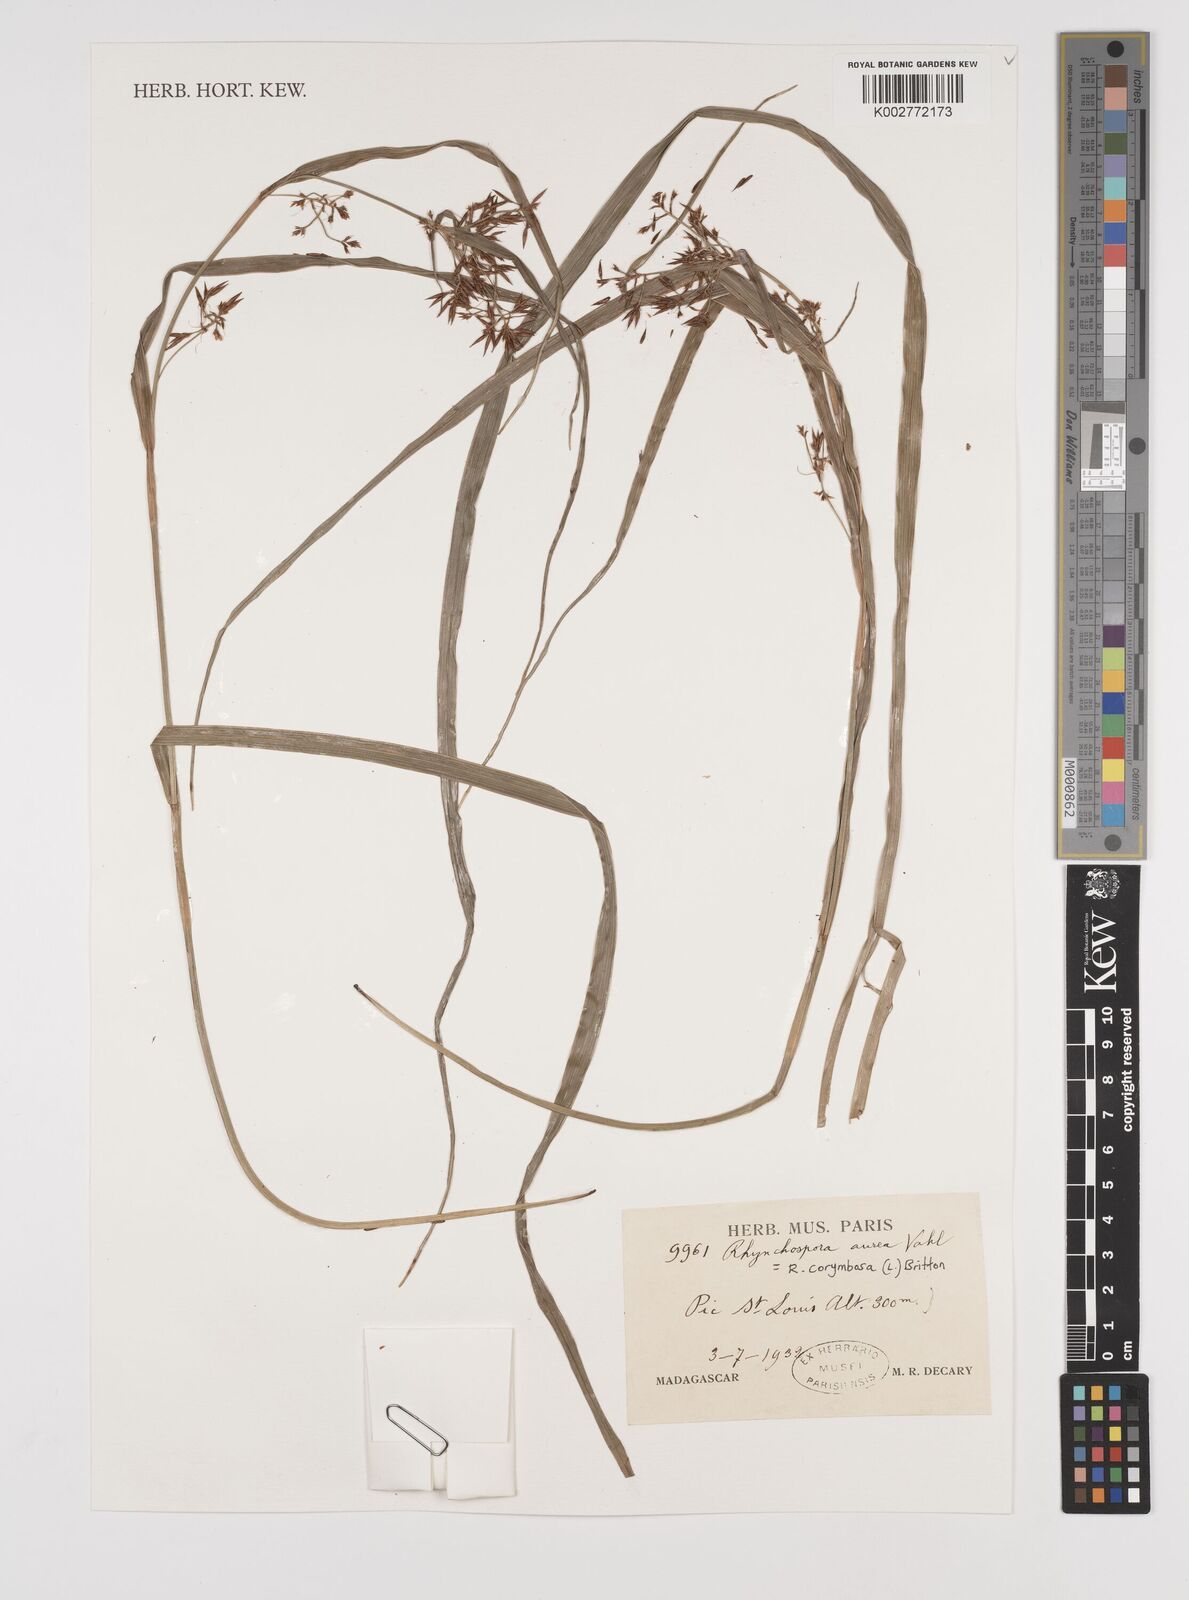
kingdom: Plantae
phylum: Tracheophyta
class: Liliopsida
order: Poales
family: Cyperaceae
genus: Rhynchospora
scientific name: Rhynchospora corymbosa
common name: Golden beak sedge
